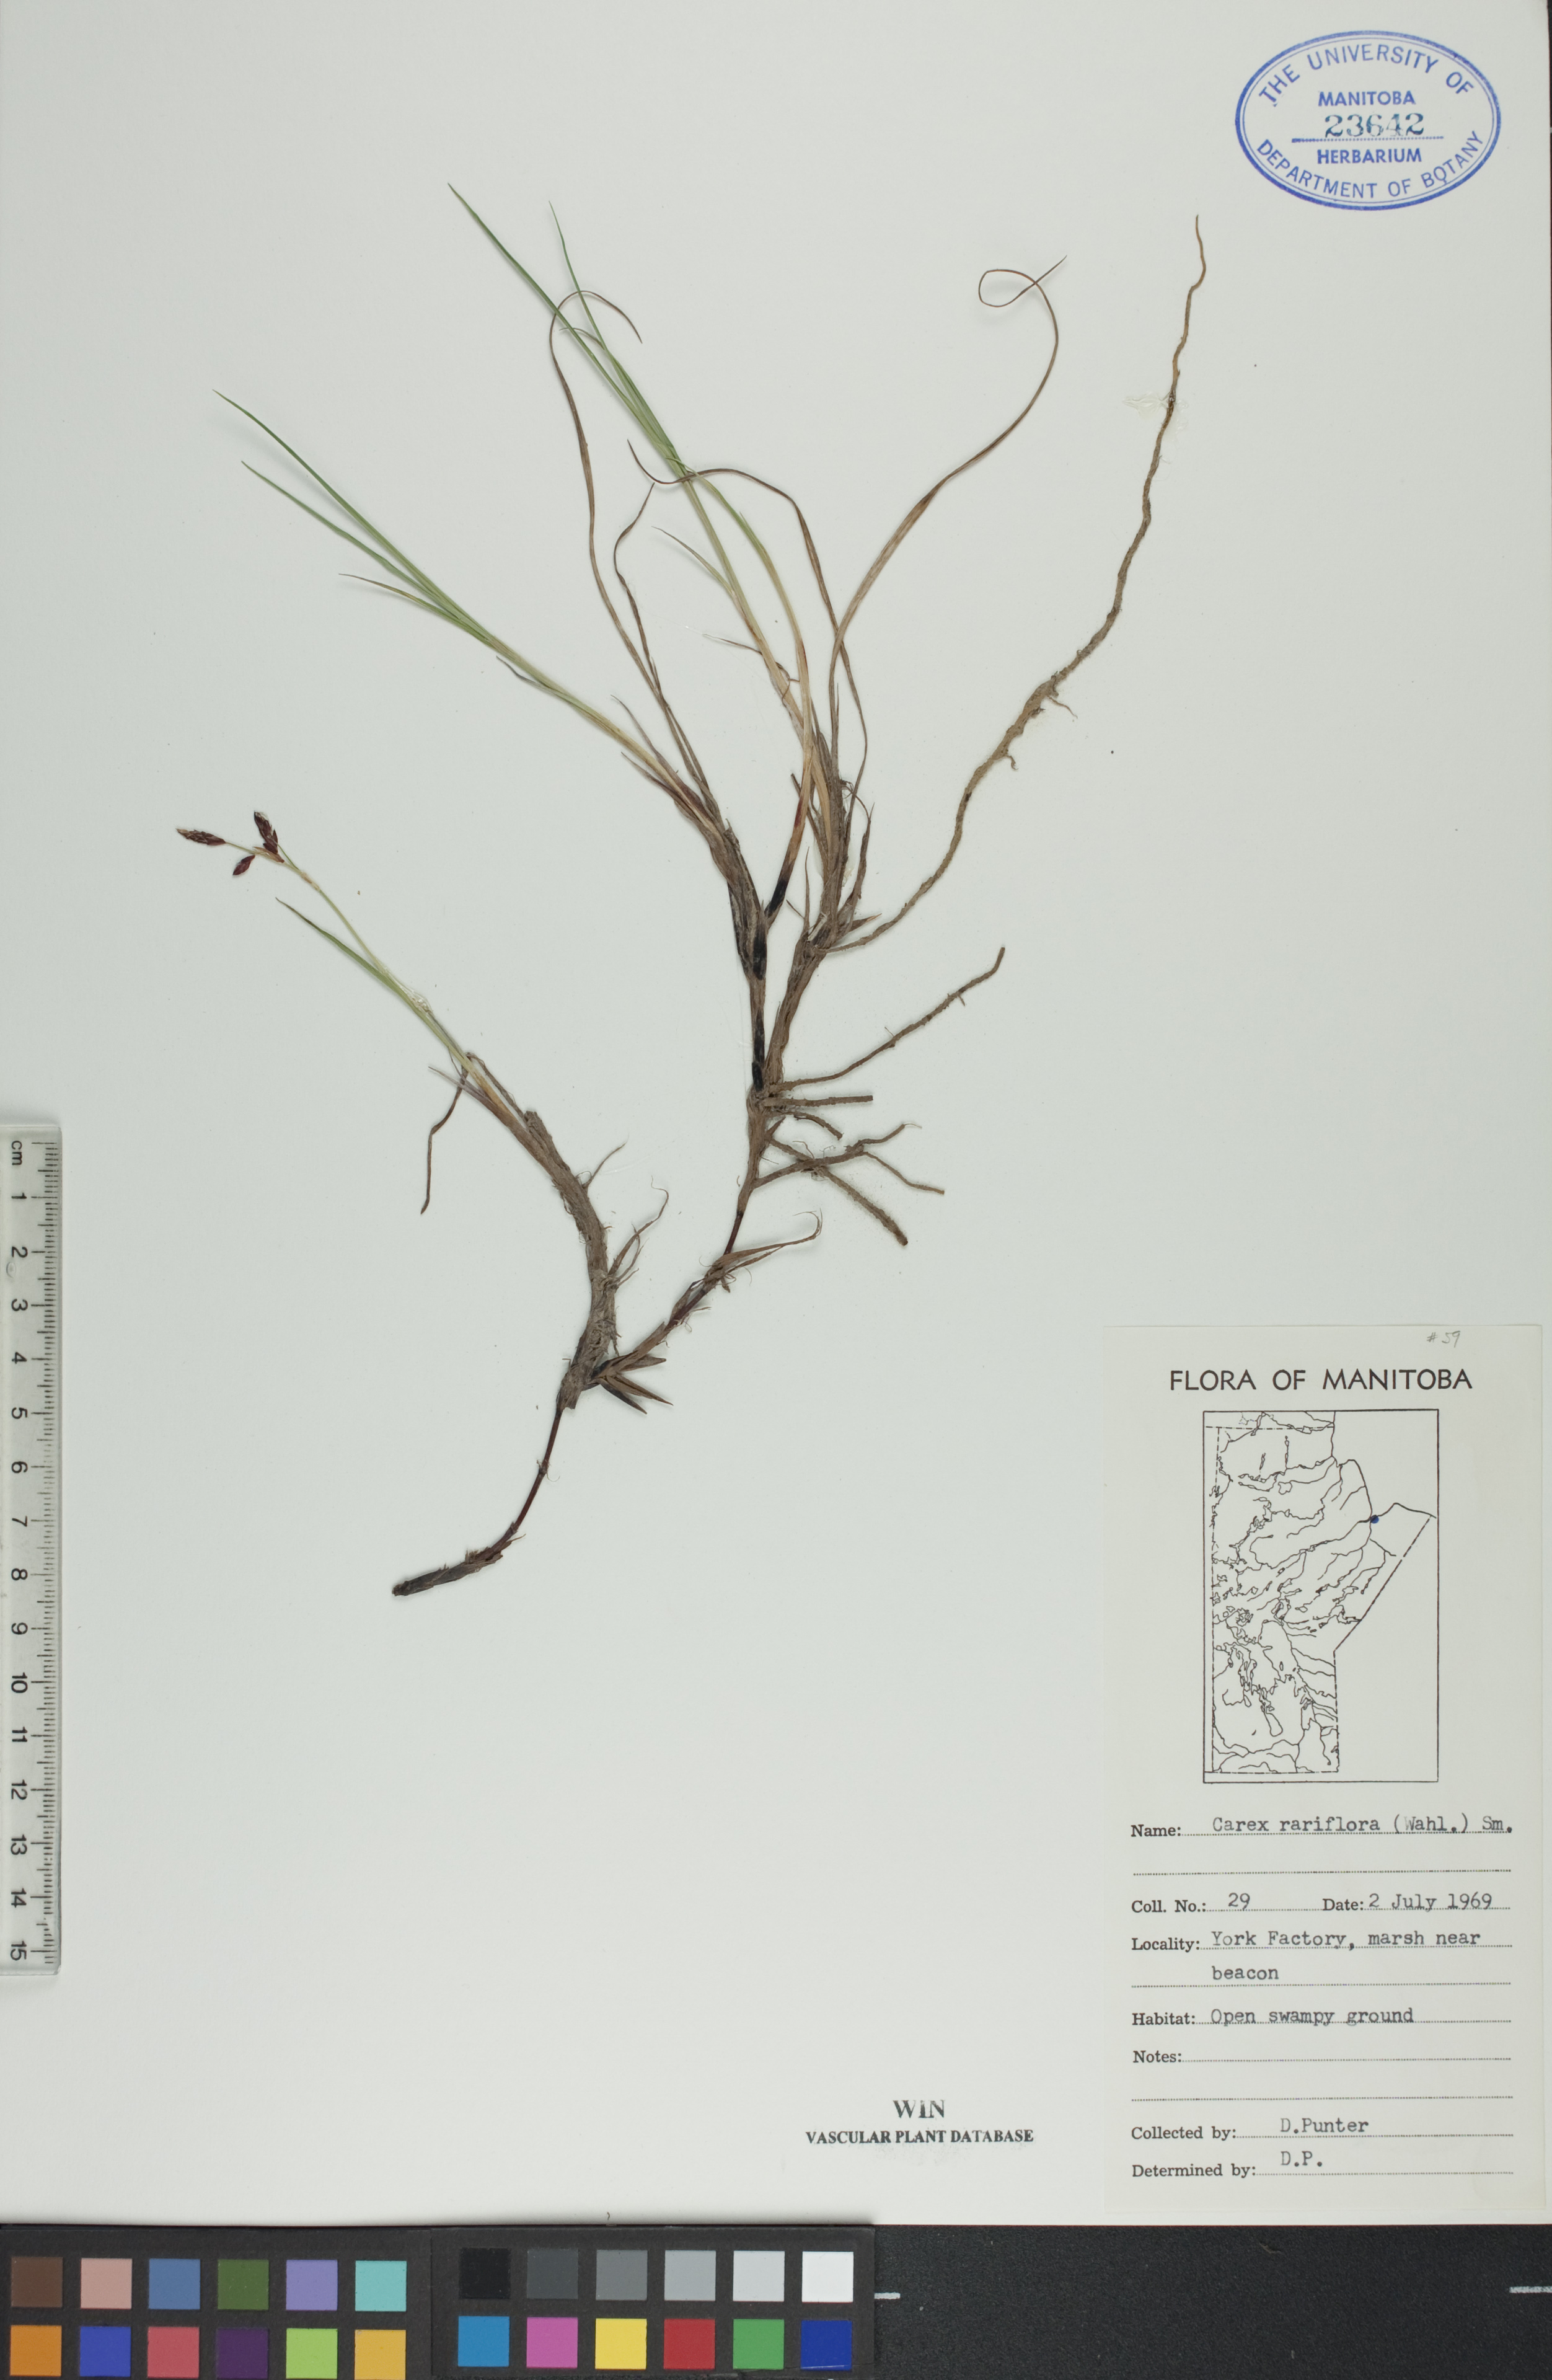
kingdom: Plantae
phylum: Tracheophyta
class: Liliopsida
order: Poales
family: Cyperaceae
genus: Carex
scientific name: Carex rariflora
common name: Loose-flowered alpine sedge
